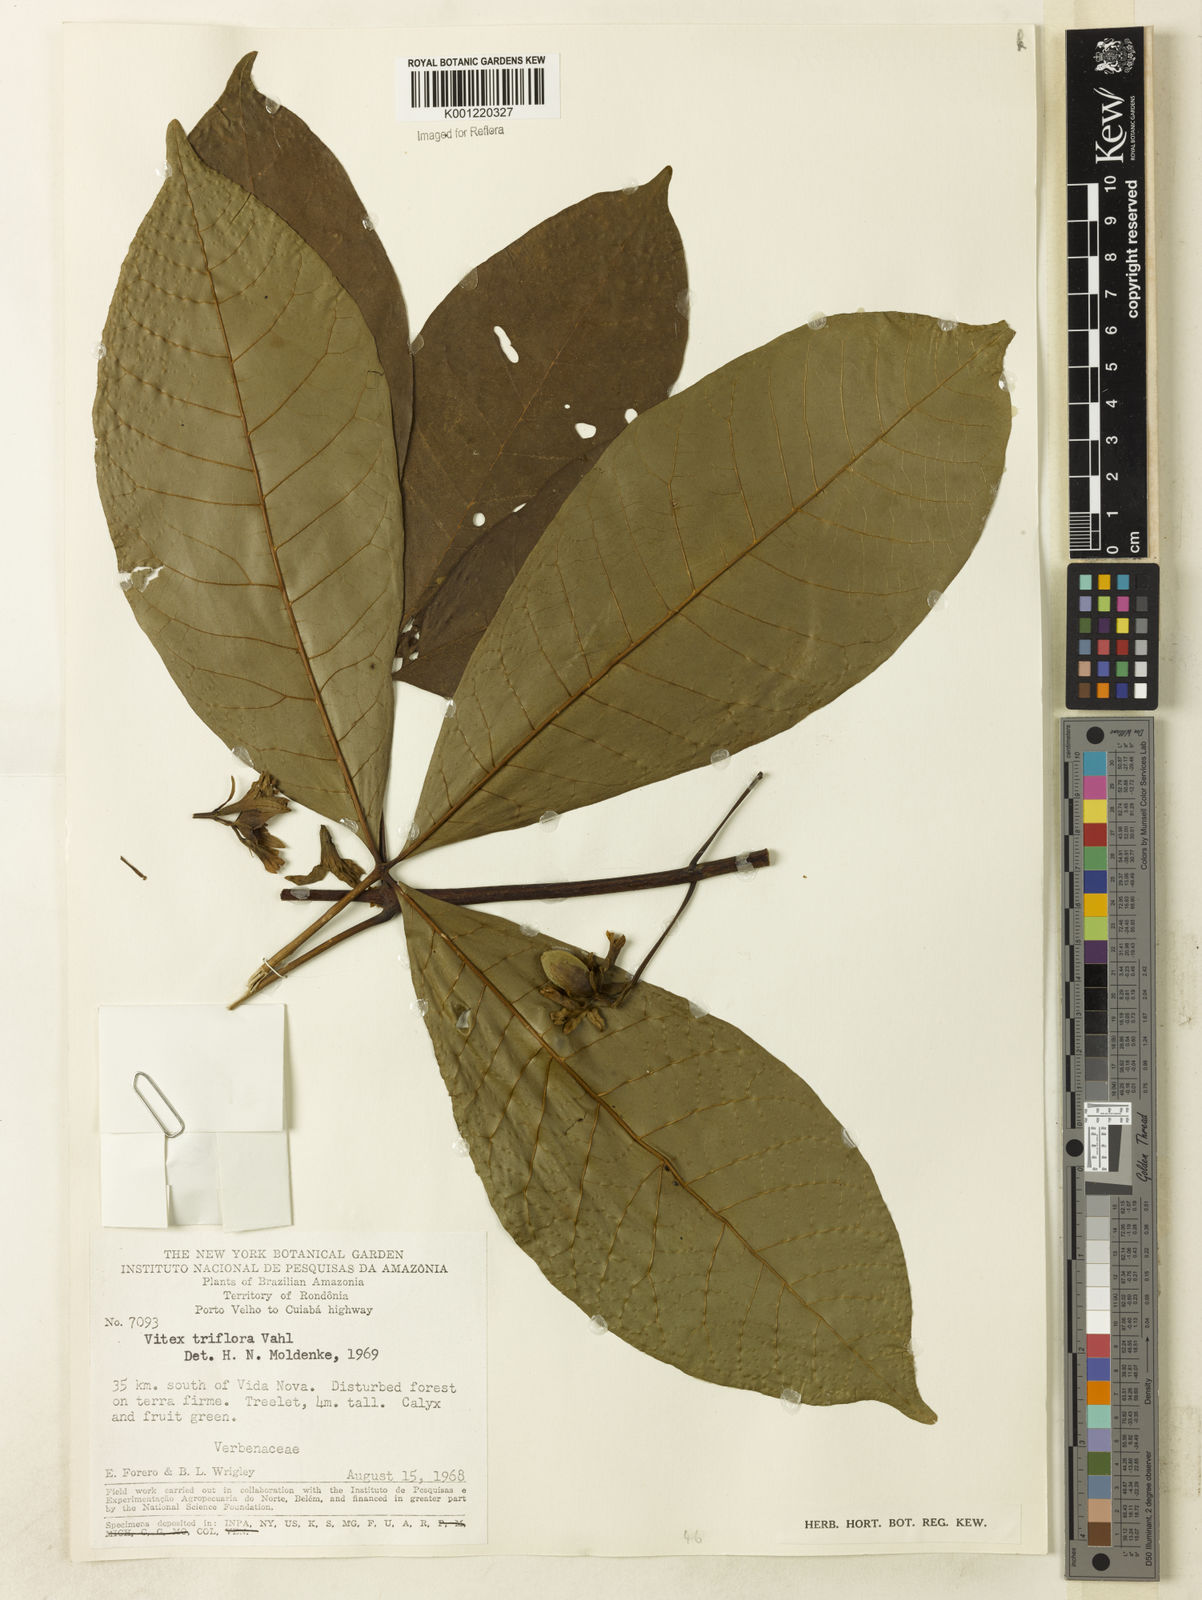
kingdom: Plantae
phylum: Tracheophyta
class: Magnoliopsida
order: Lamiales
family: Lamiaceae
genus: Vitex
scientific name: Vitex triflora
